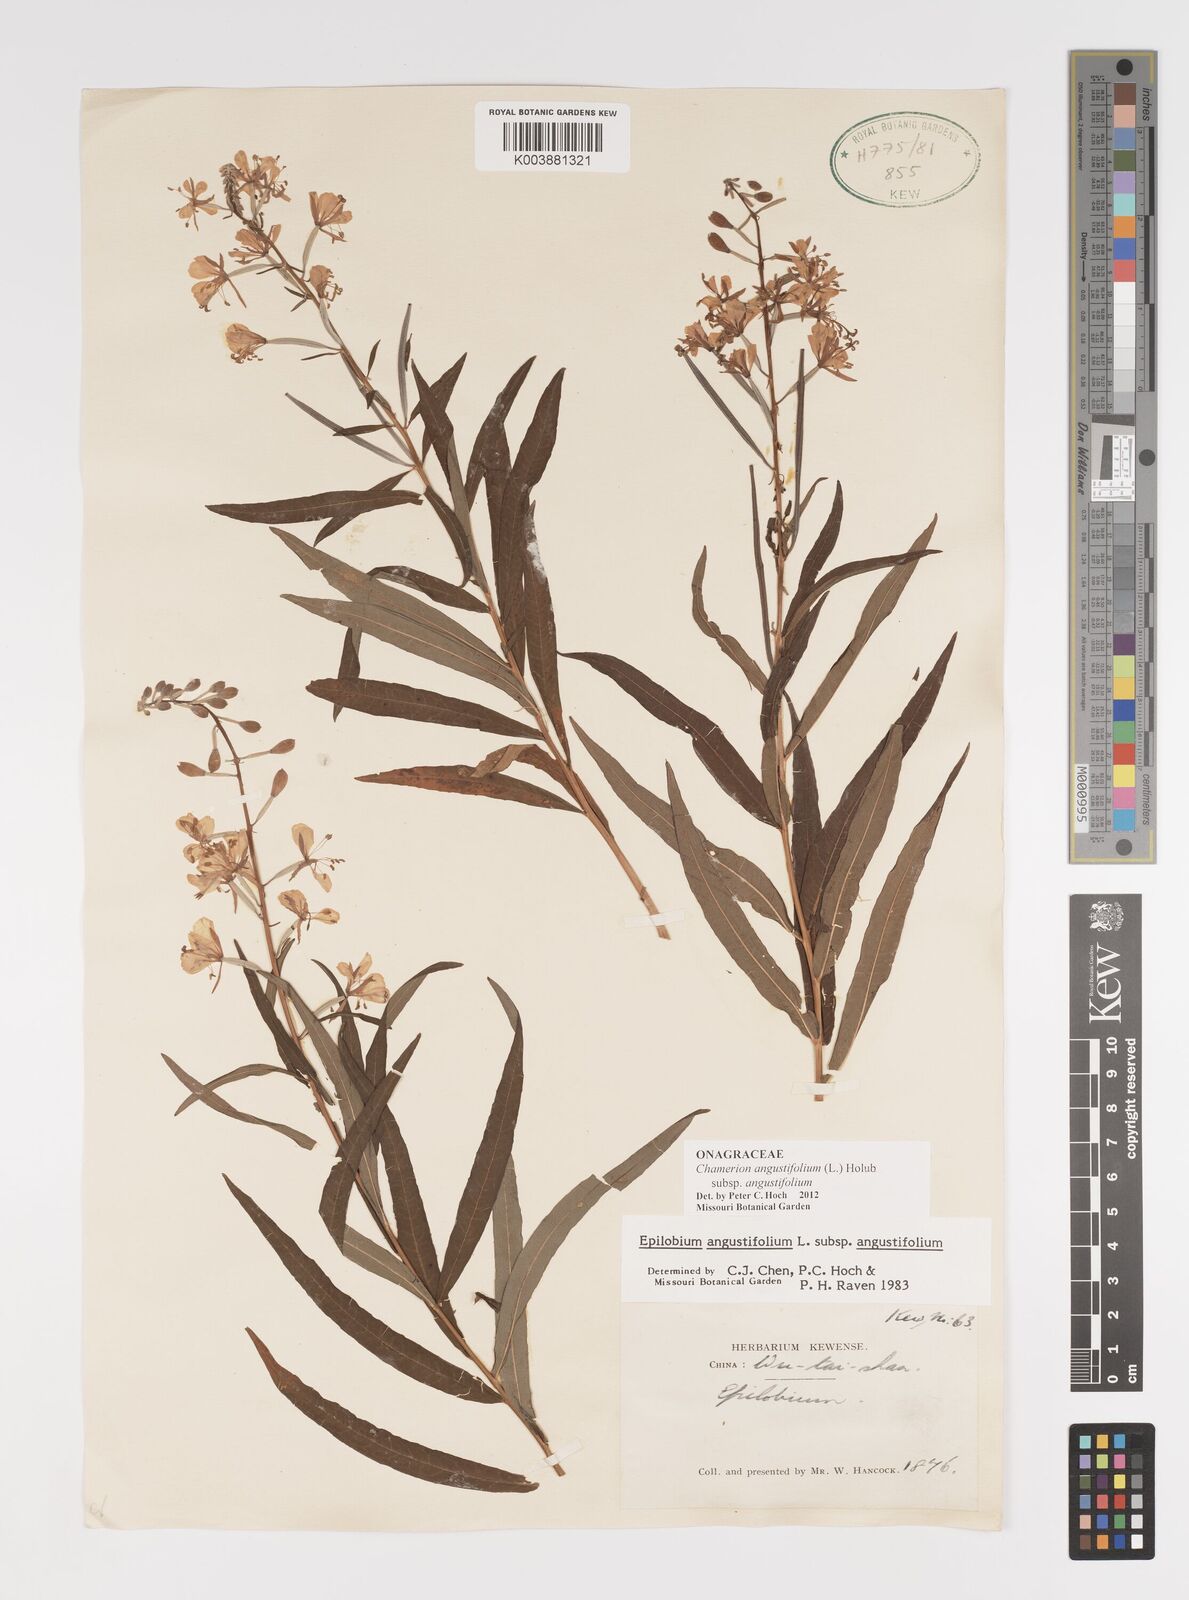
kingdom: Plantae
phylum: Tracheophyta
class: Magnoliopsida
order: Myrtales
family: Onagraceae
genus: Chamaenerion
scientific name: Chamaenerion angustifolium
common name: Fireweed
